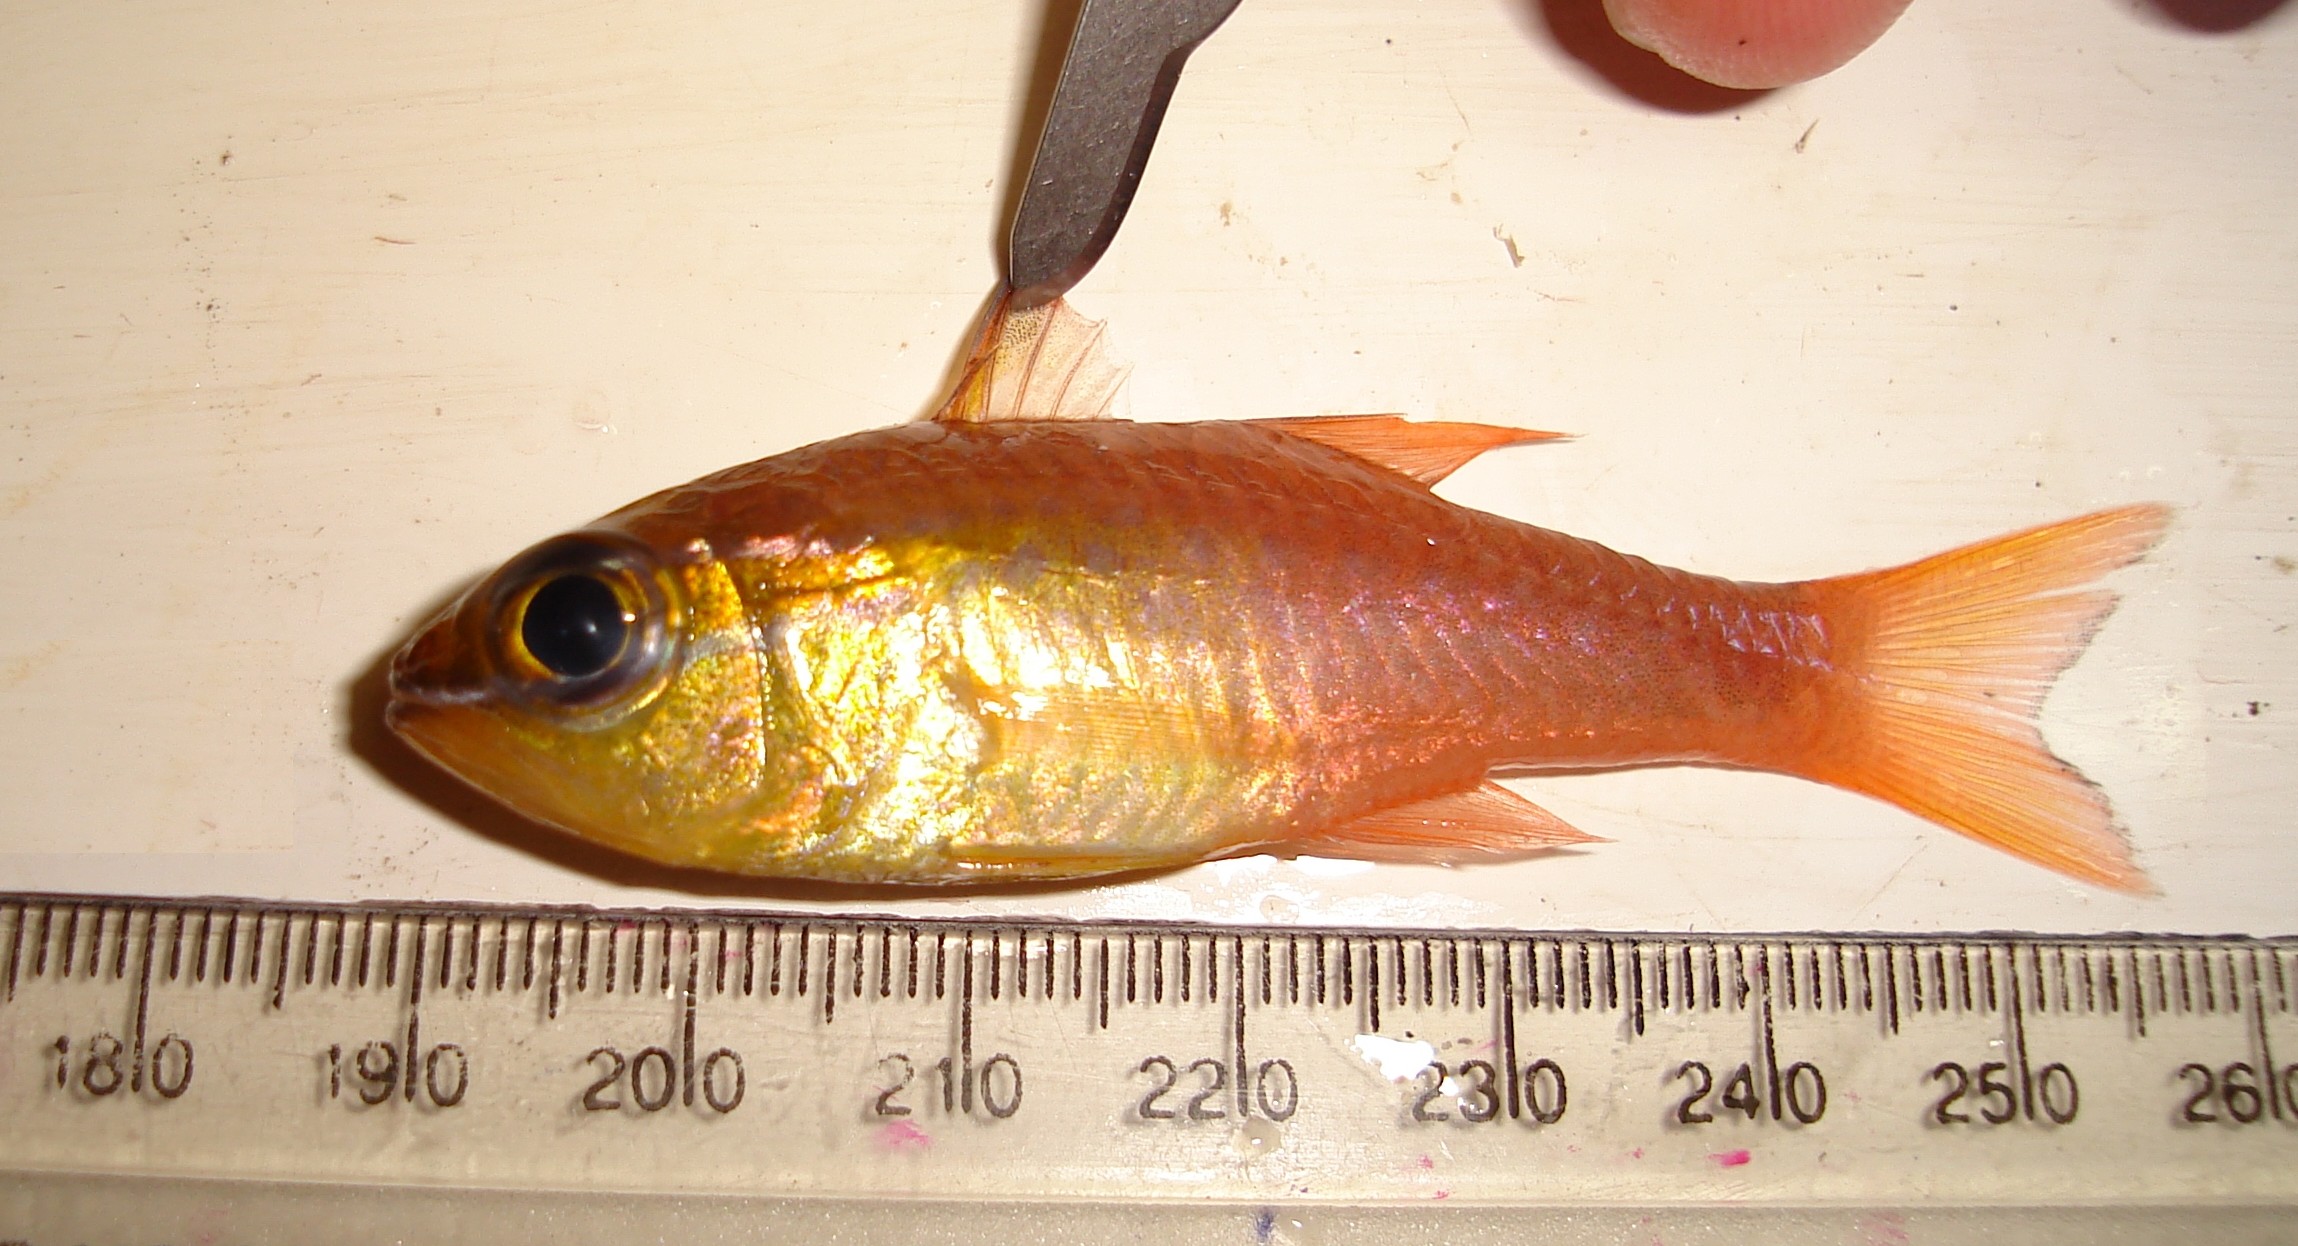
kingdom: Animalia
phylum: Chordata
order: Perciformes
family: Apogonidae
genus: Ostorhinchus
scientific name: Ostorhinchus apogonoides
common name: Goldbelly cardinalfish
